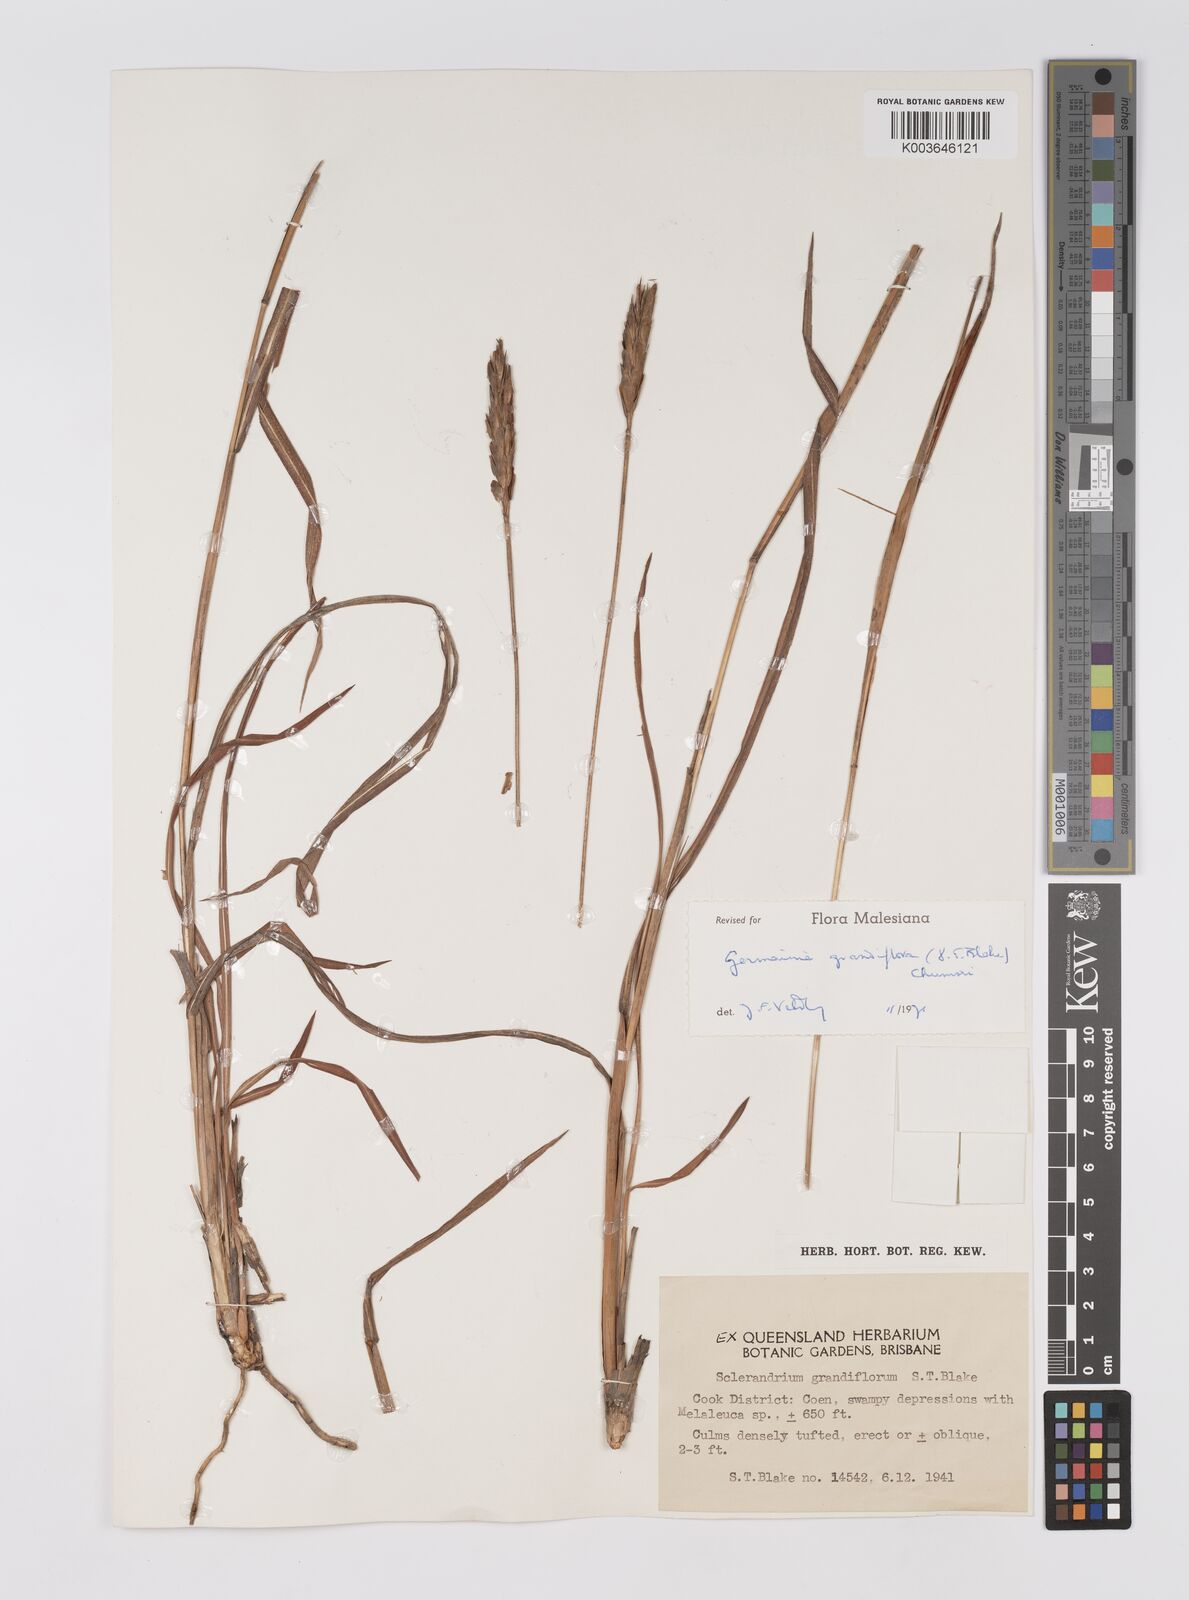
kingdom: Plantae
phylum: Tracheophyta
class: Liliopsida
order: Poales
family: Poaceae
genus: Germainia
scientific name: Germainia grandiflora
